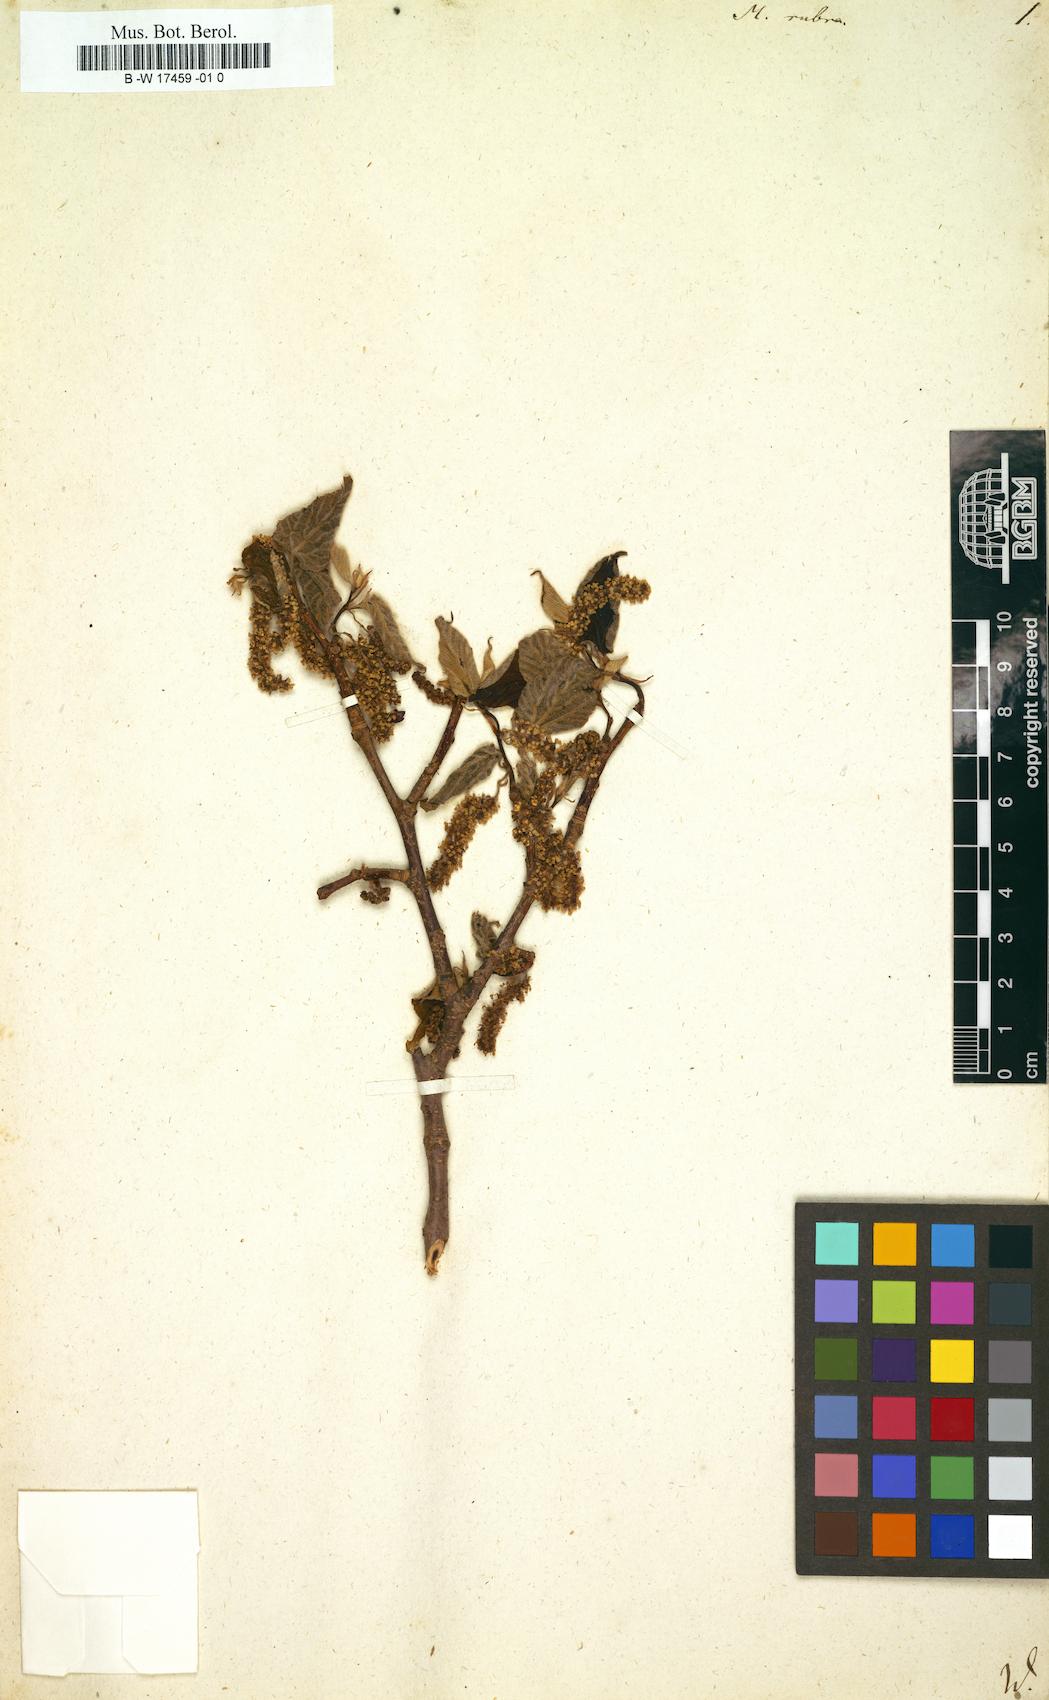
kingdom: Plantae
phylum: Tracheophyta
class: Magnoliopsida
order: Rosales
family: Moraceae
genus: Morus
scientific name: Morus rubra
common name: Red mulberry
